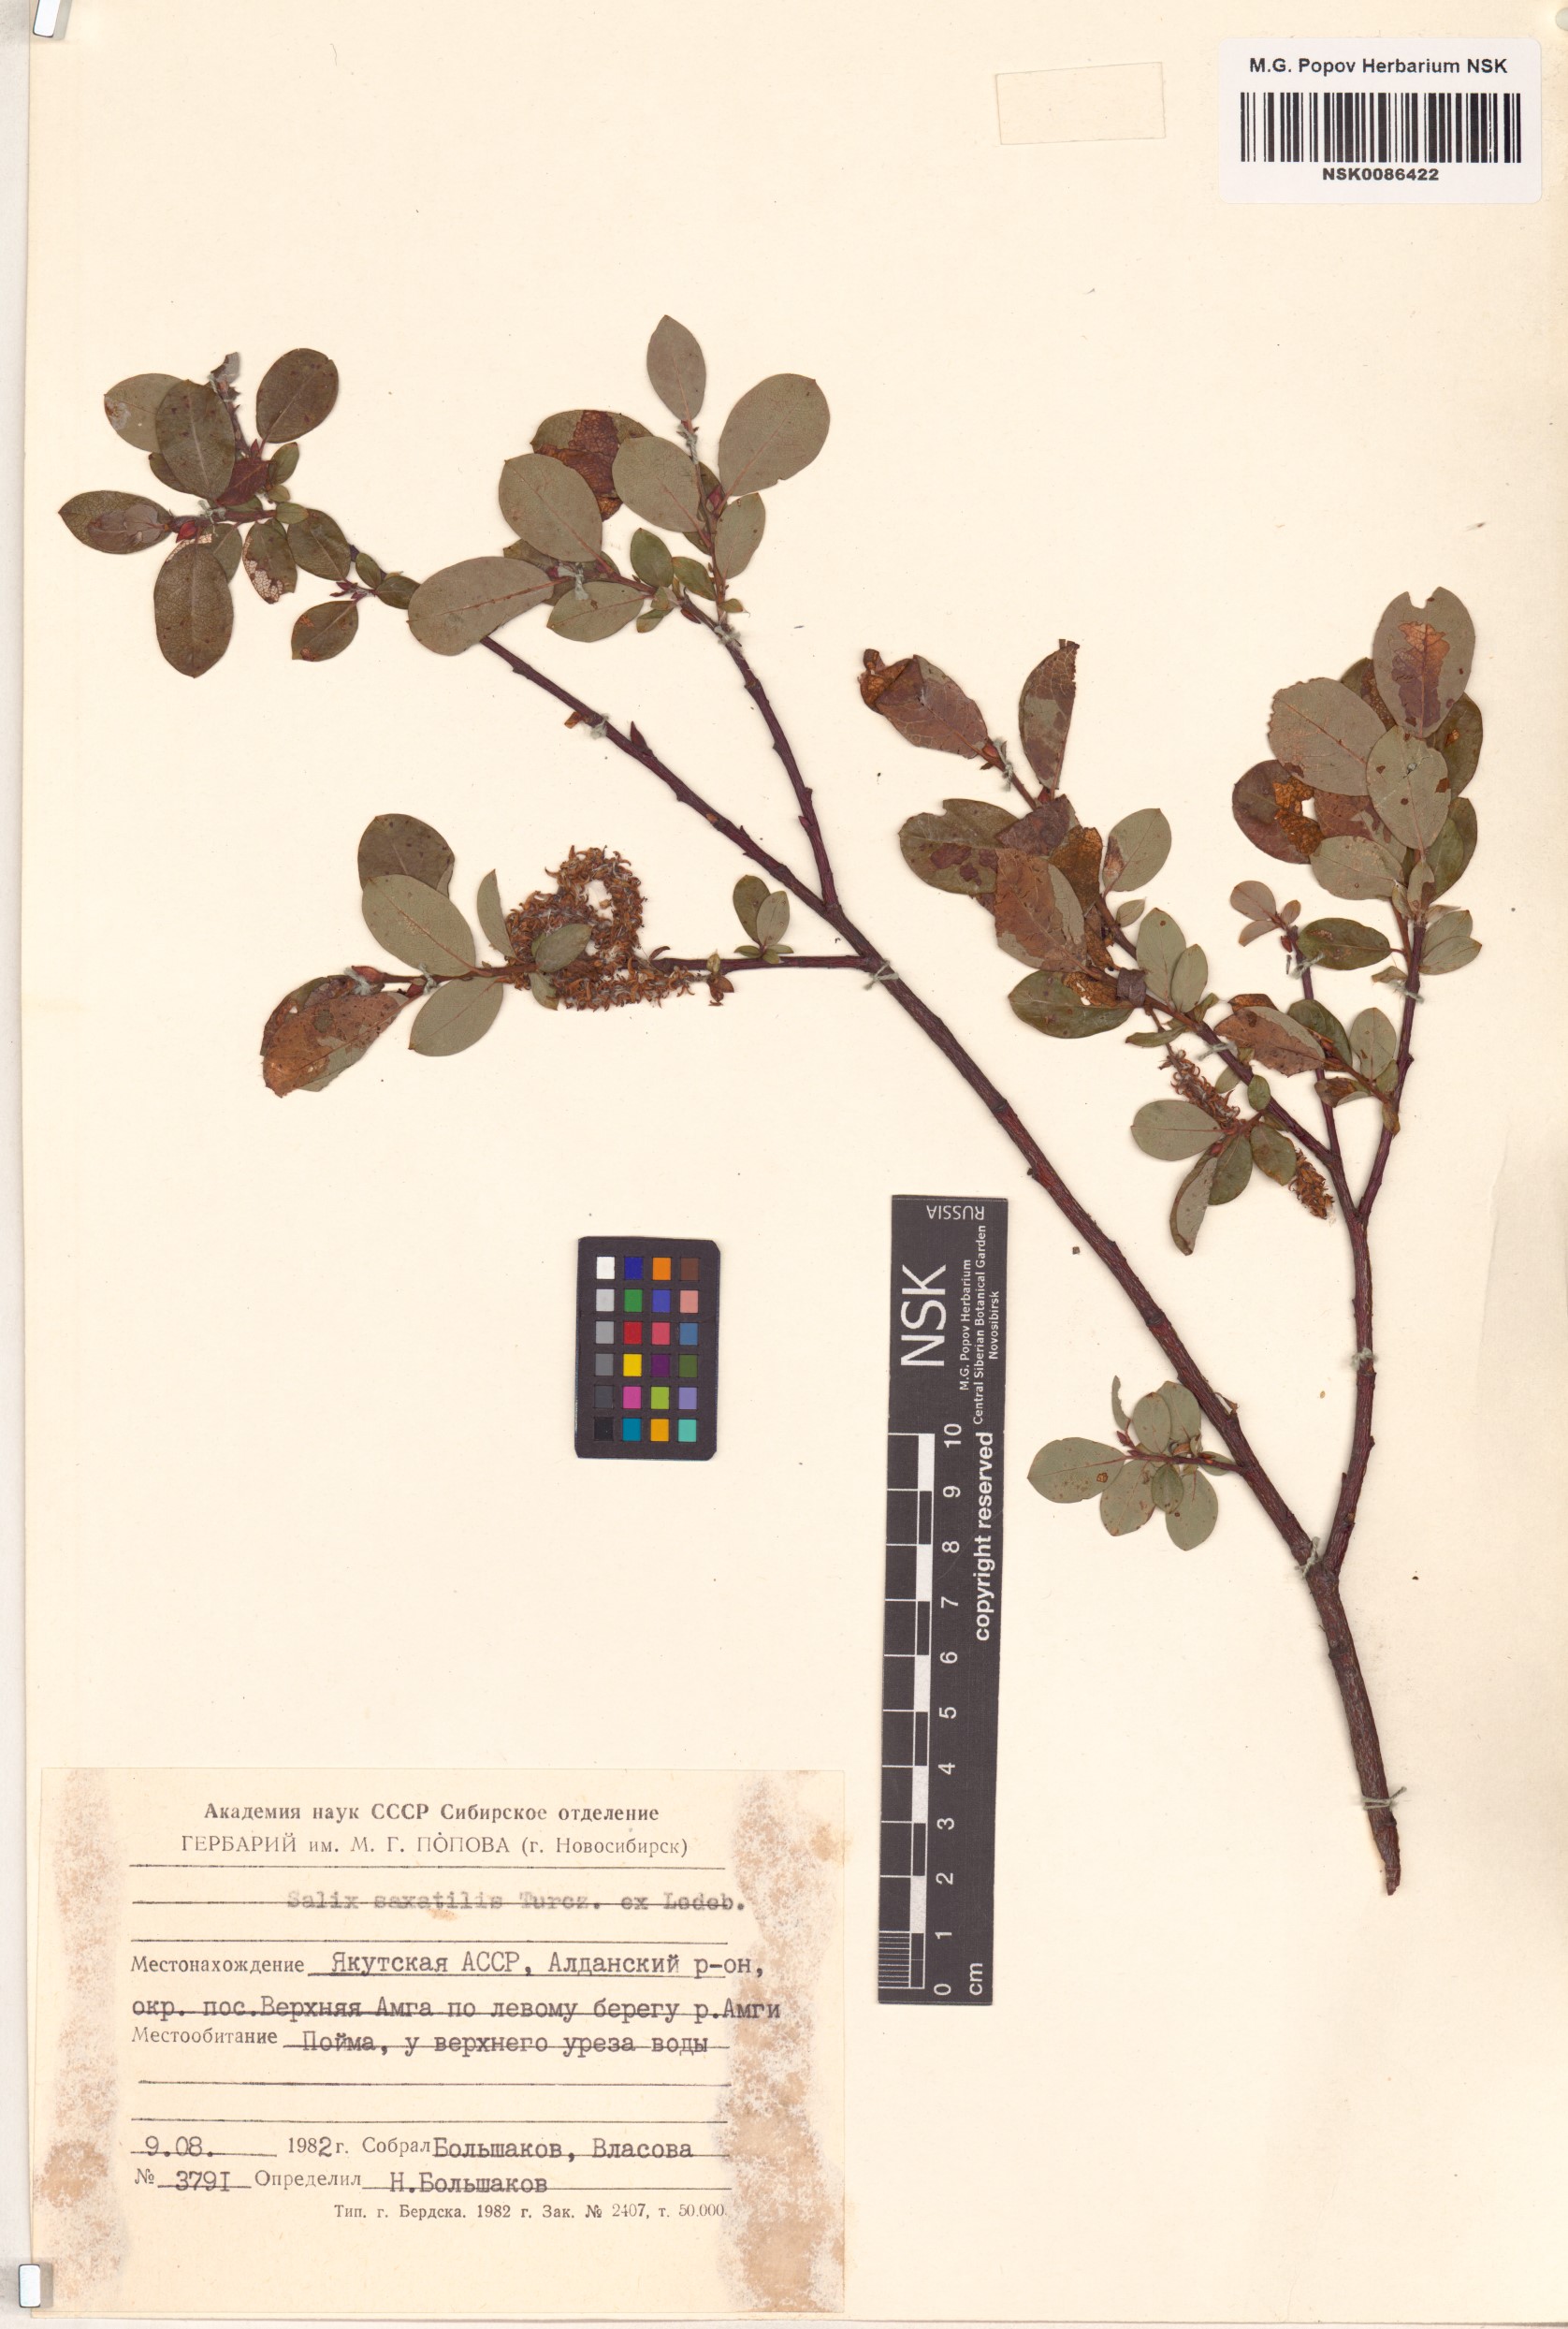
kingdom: Plantae
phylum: Tracheophyta
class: Magnoliopsida
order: Malpighiales
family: Salicaceae
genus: Salix
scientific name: Salix saxatilis
